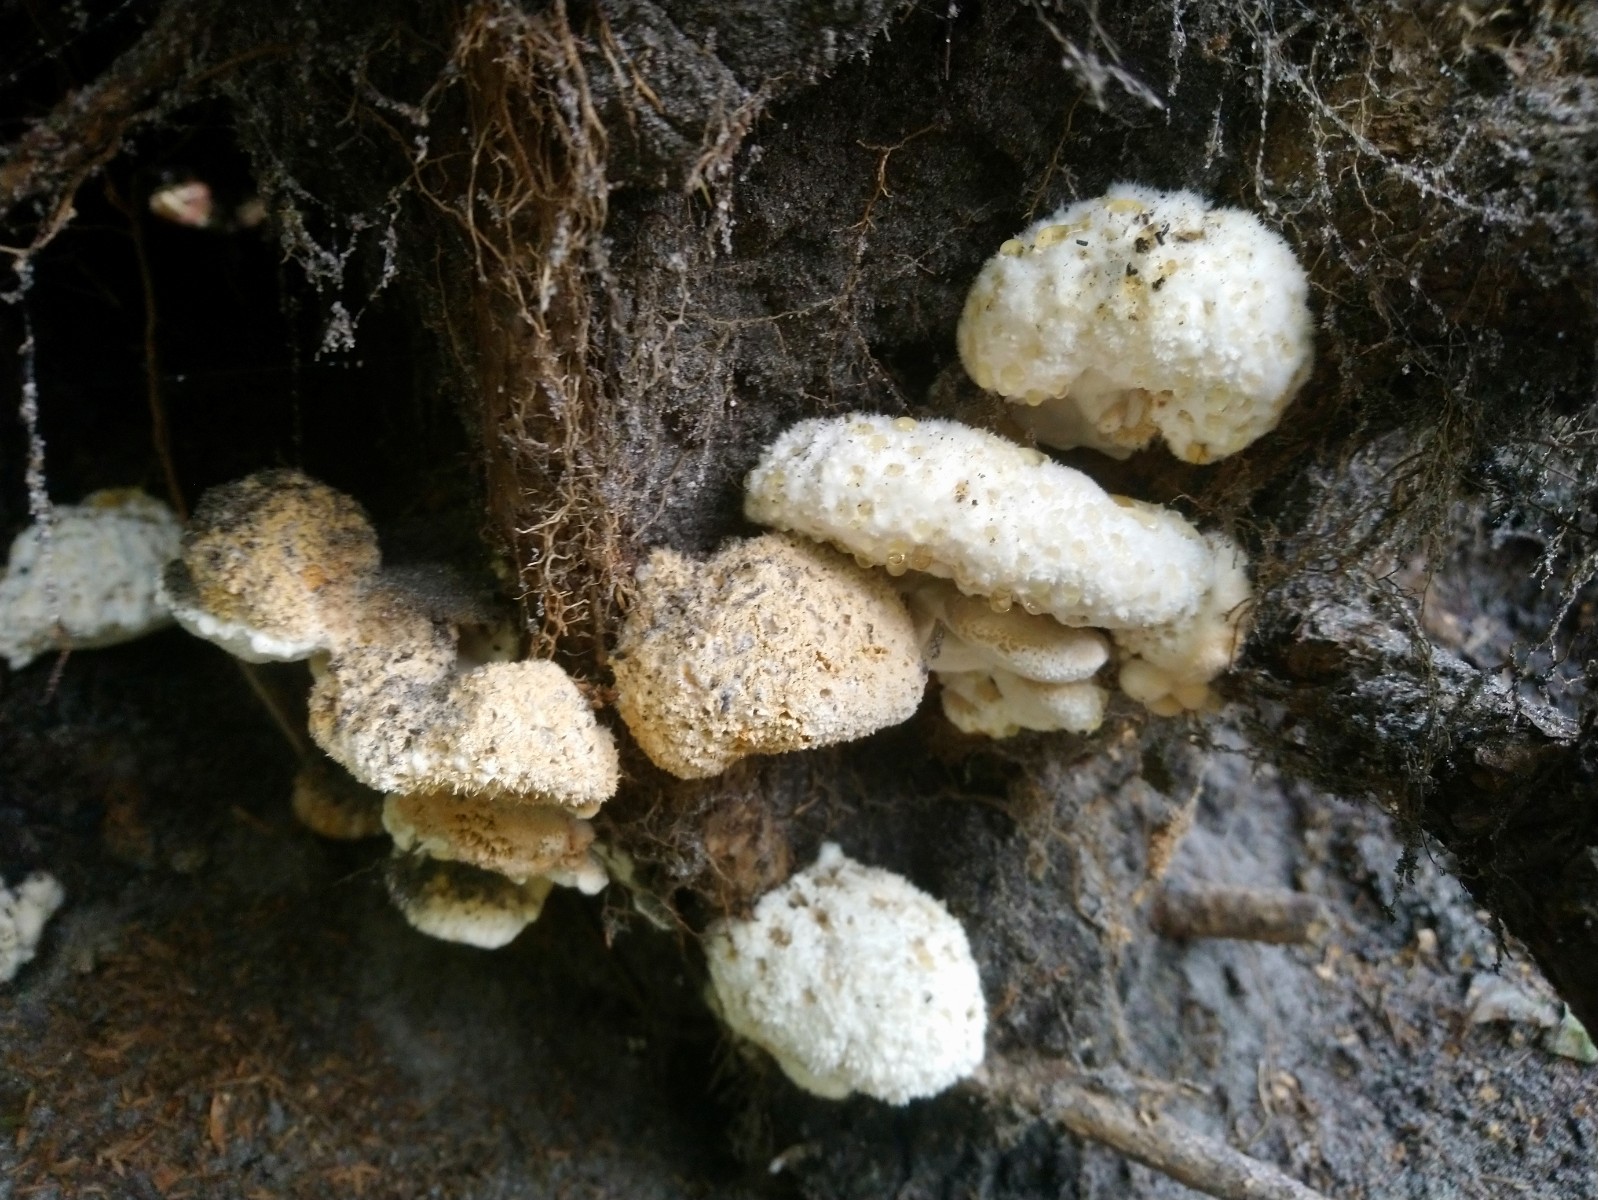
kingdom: Fungi
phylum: Basidiomycota
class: Agaricomycetes
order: Polyporales
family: Dacryobolaceae
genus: Postia
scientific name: Postia ptychogaster
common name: støvende kødporesvamp
